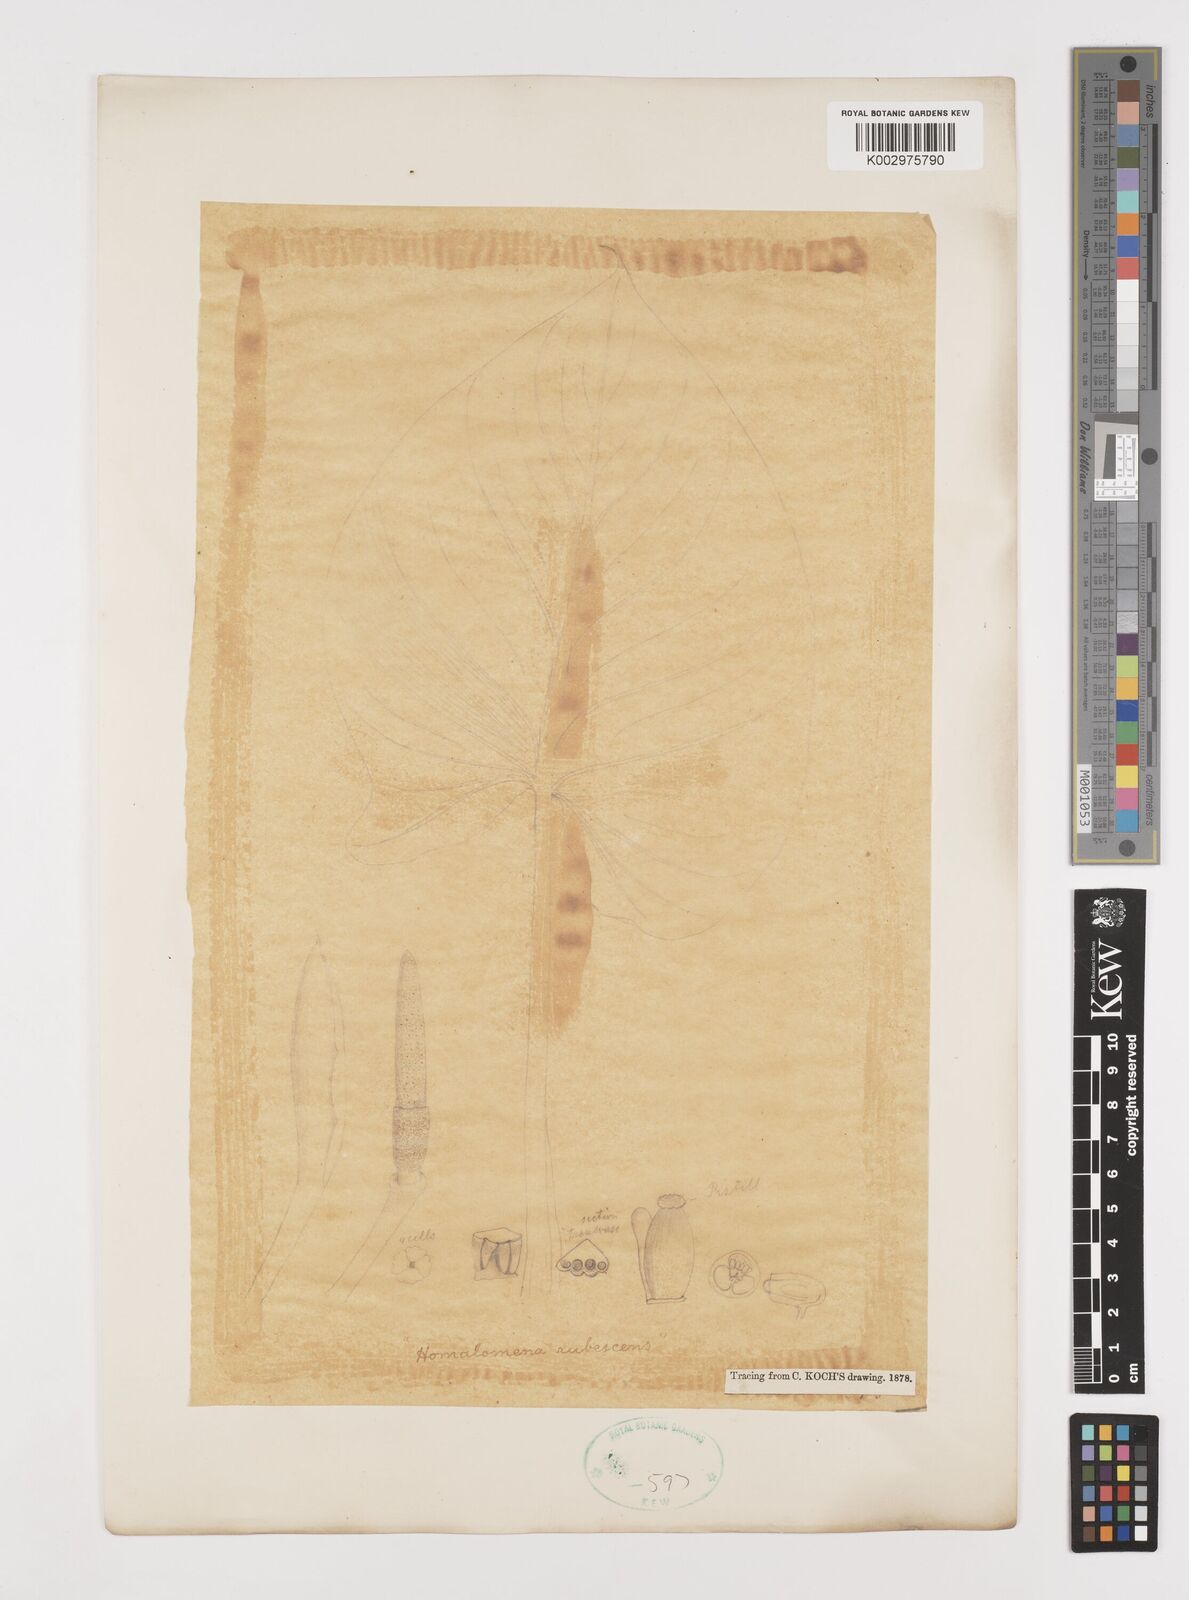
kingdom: Plantae
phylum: Tracheophyta
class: Liliopsida
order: Alismatales
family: Araceae
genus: Homalomena
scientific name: Homalomena rubescens
